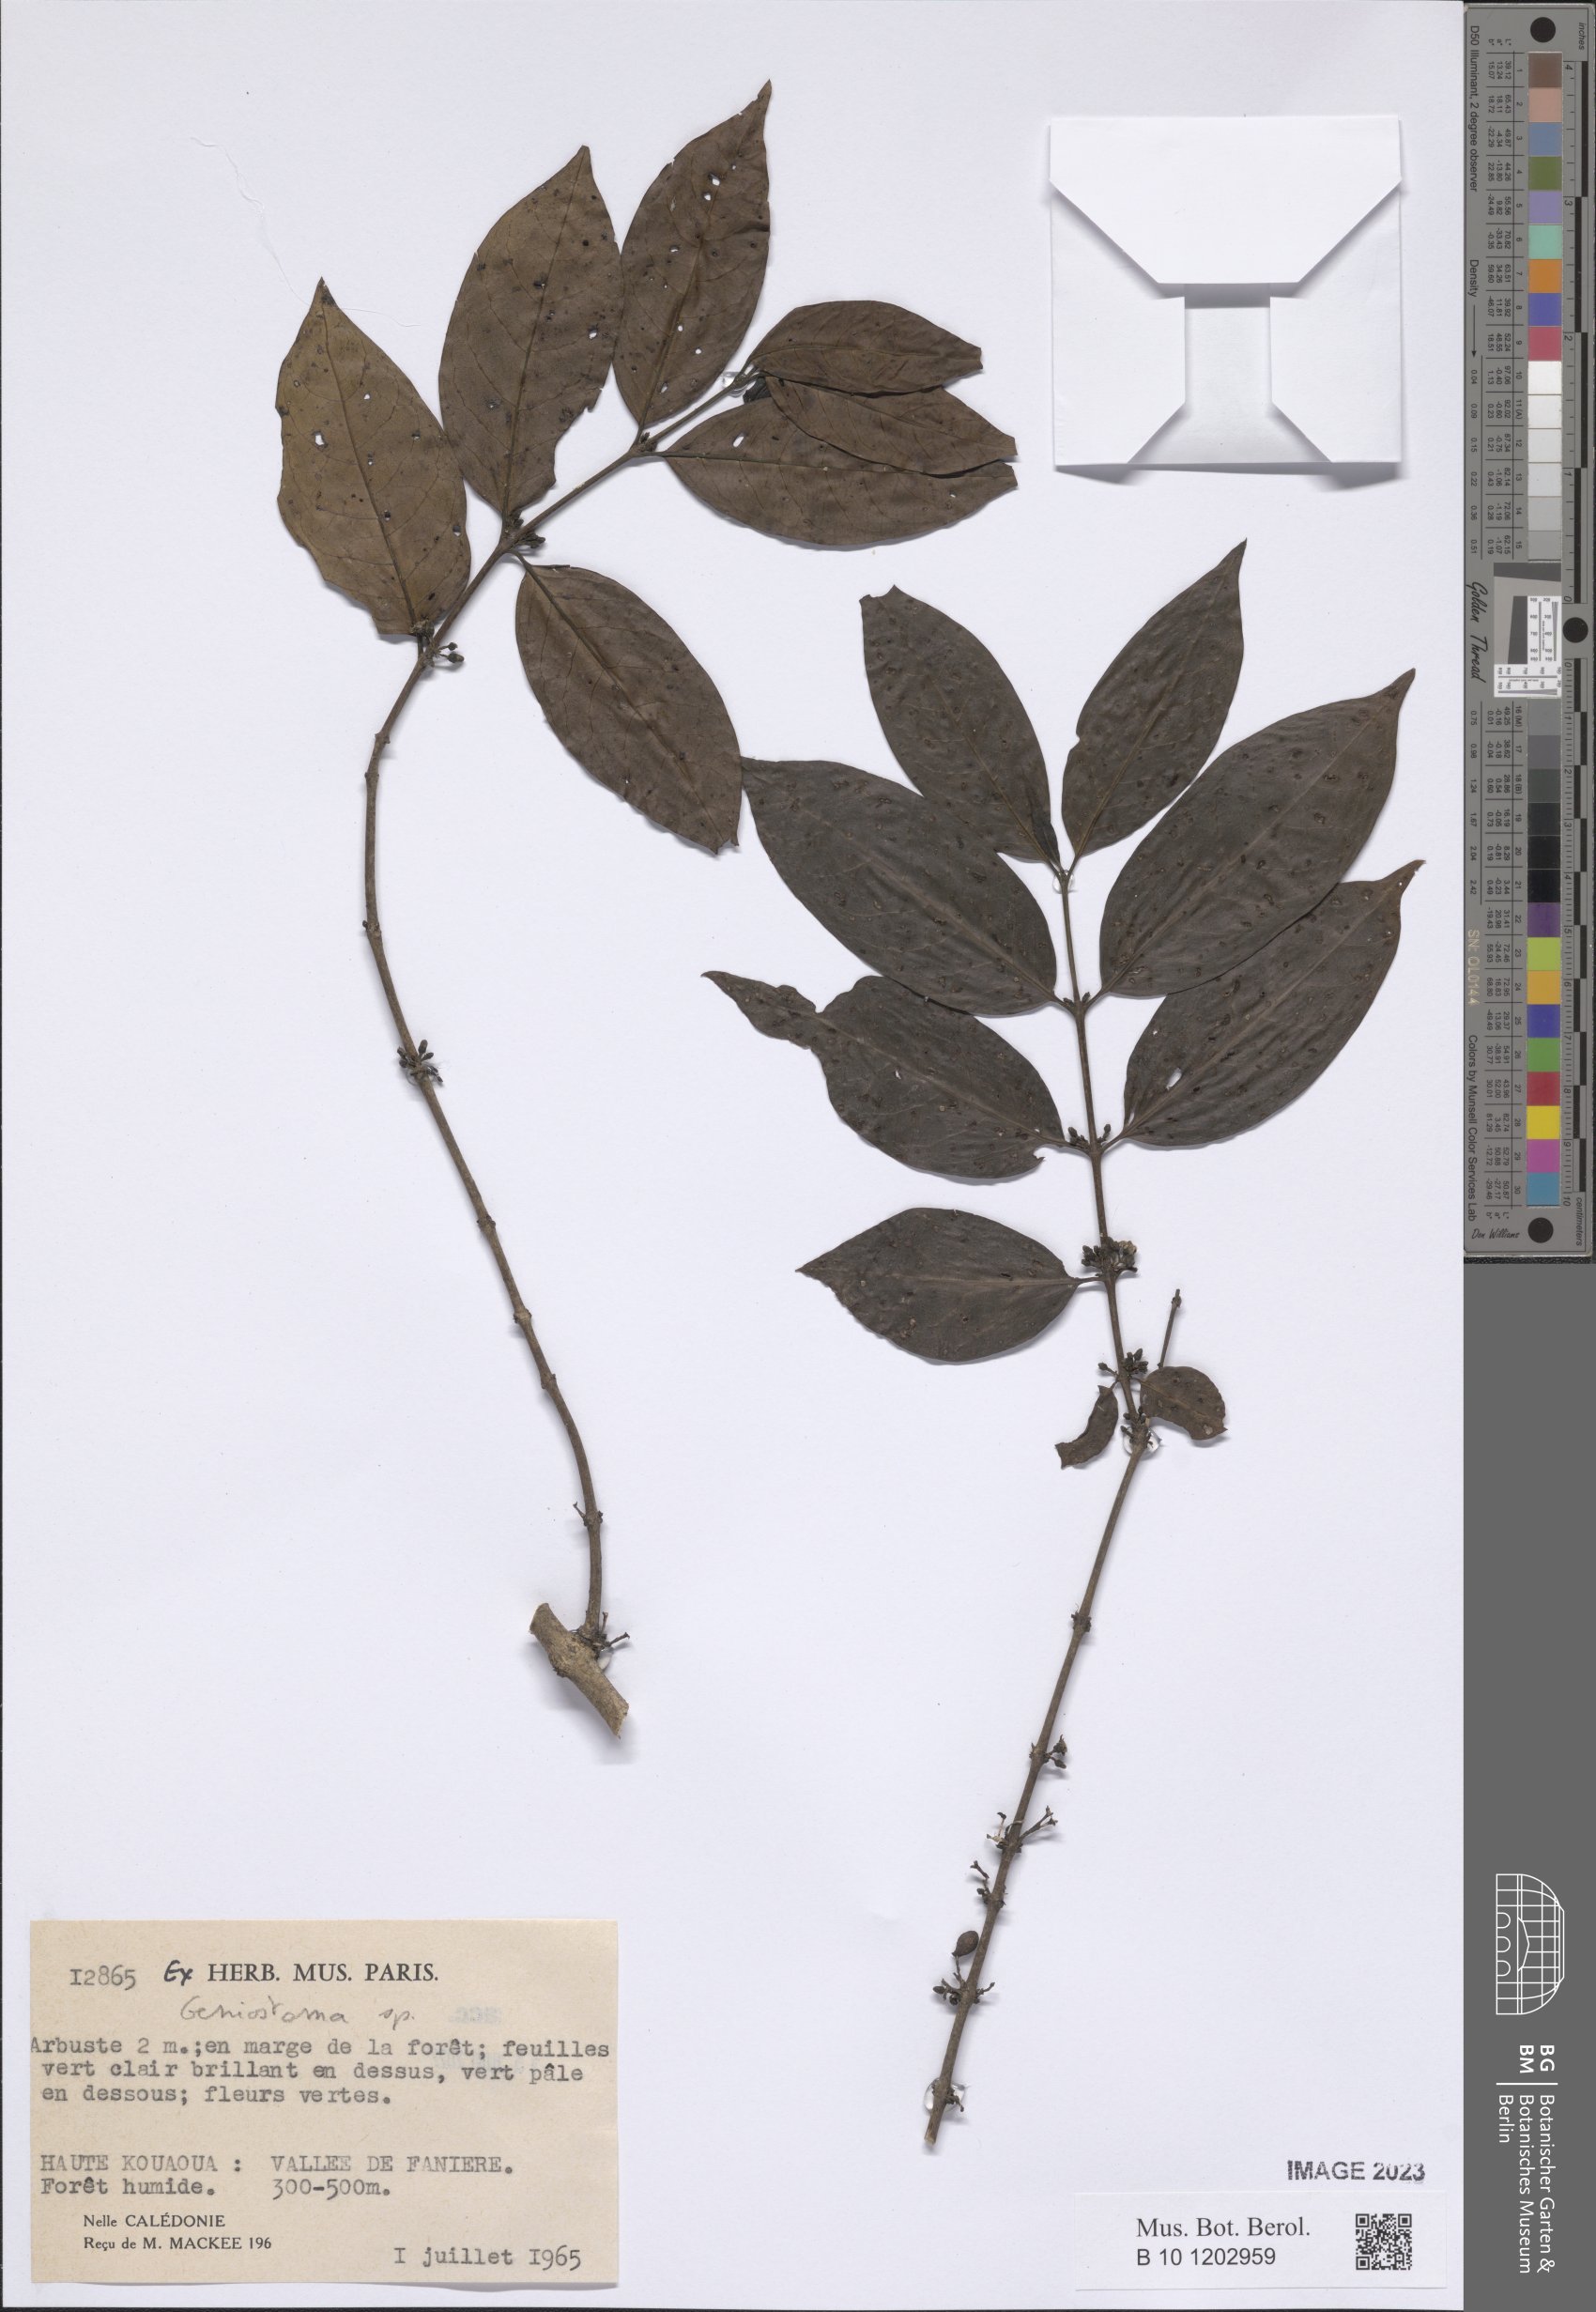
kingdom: Plantae
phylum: Tracheophyta
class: Magnoliopsida
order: Gentianales
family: Loganiaceae
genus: Geniostoma
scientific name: Geniostoma
